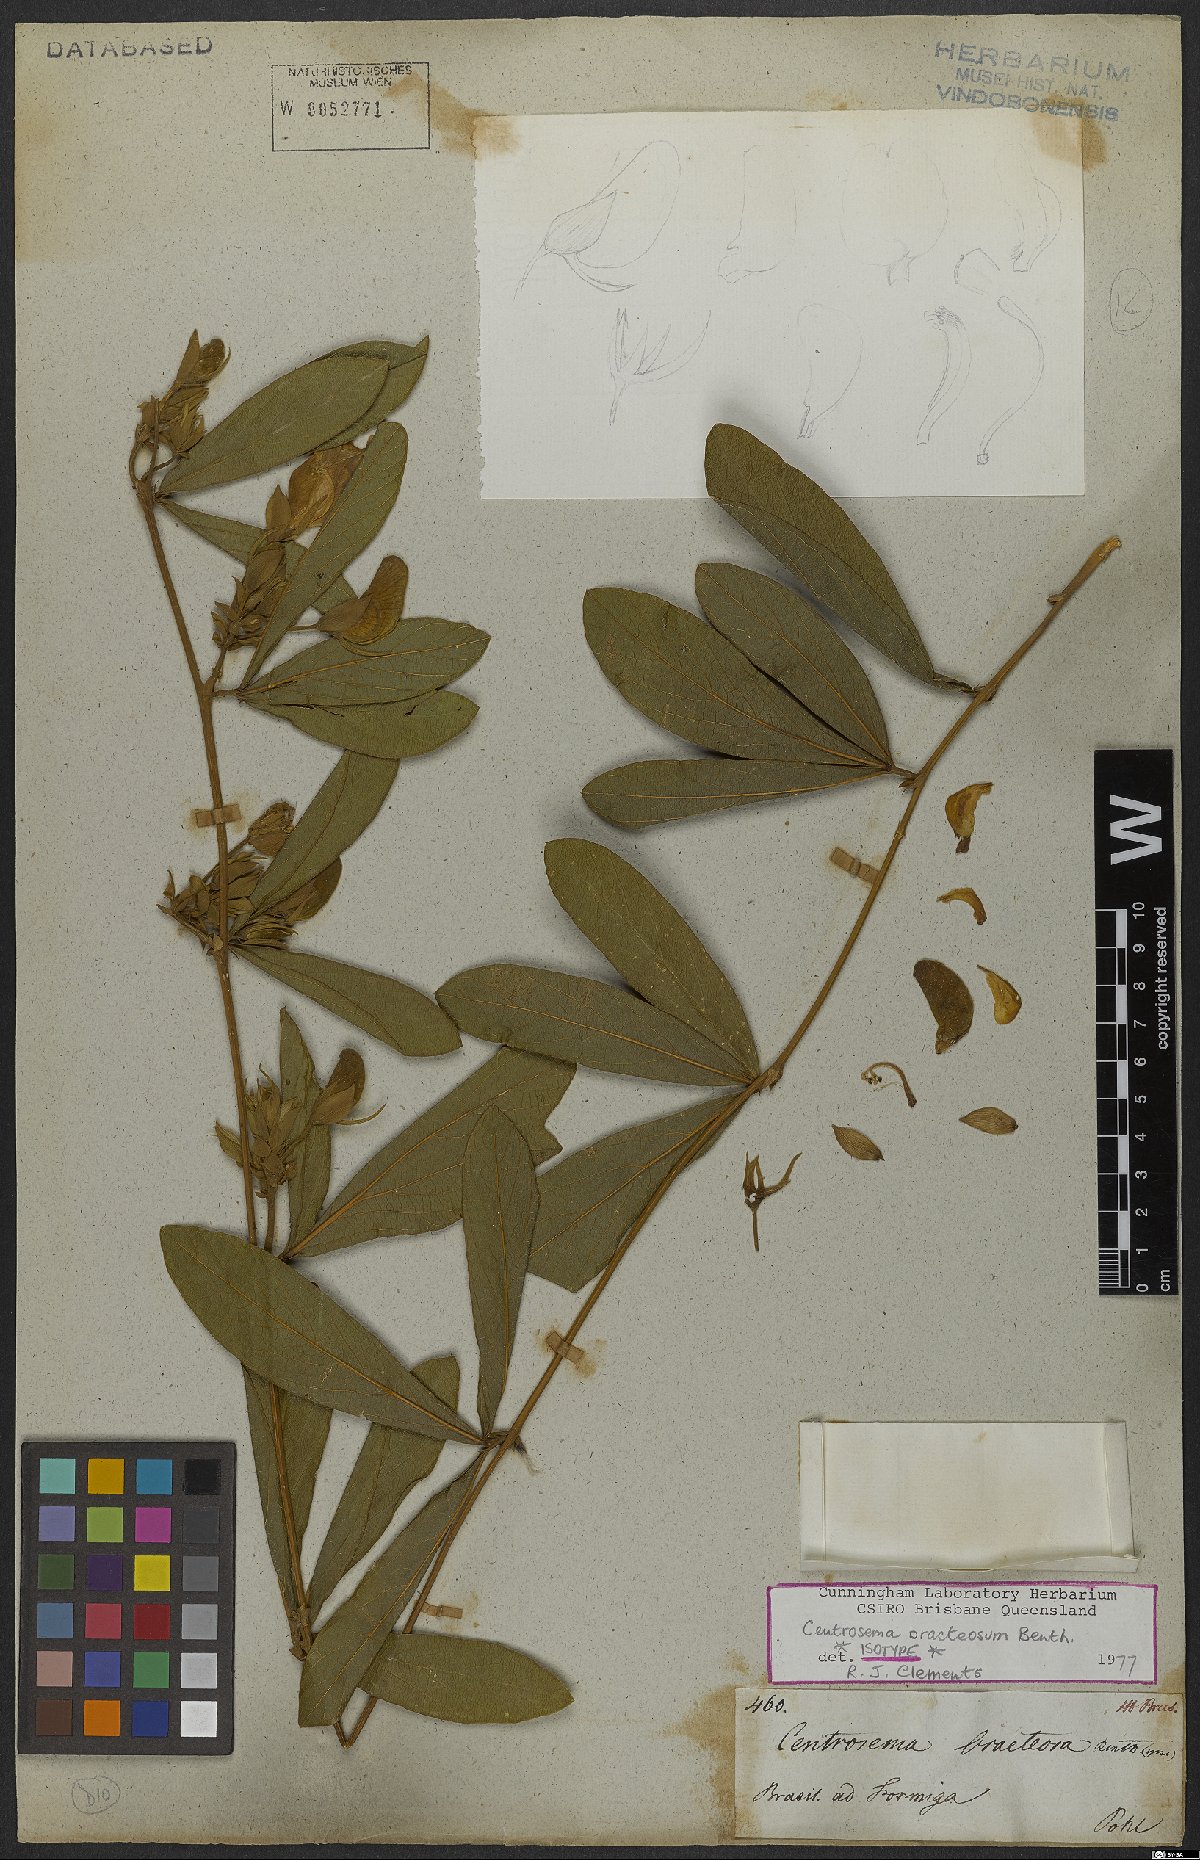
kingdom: Plantae
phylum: Tracheophyta
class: Magnoliopsida
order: Fabales
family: Fabaceae
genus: Centrosema
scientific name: Centrosema bracteosum
